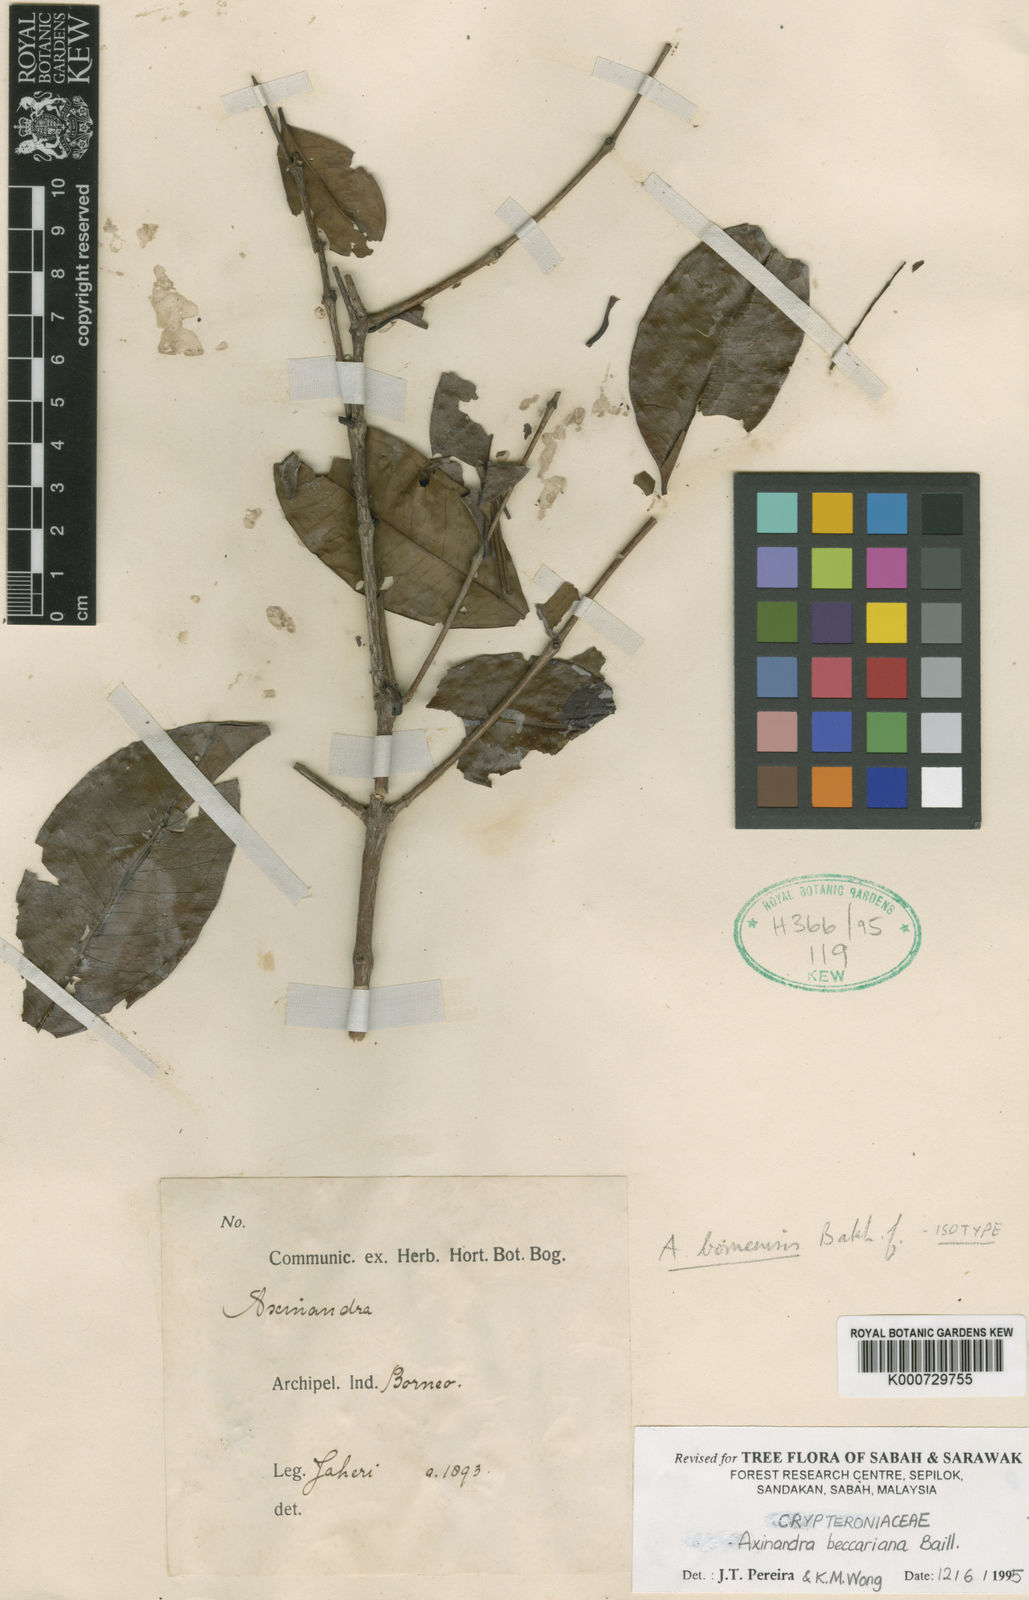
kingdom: Plantae
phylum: Tracheophyta
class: Magnoliopsida
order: Myrtales
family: Crypteroniaceae
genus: Crypteronia
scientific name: Crypteronia borneensis
